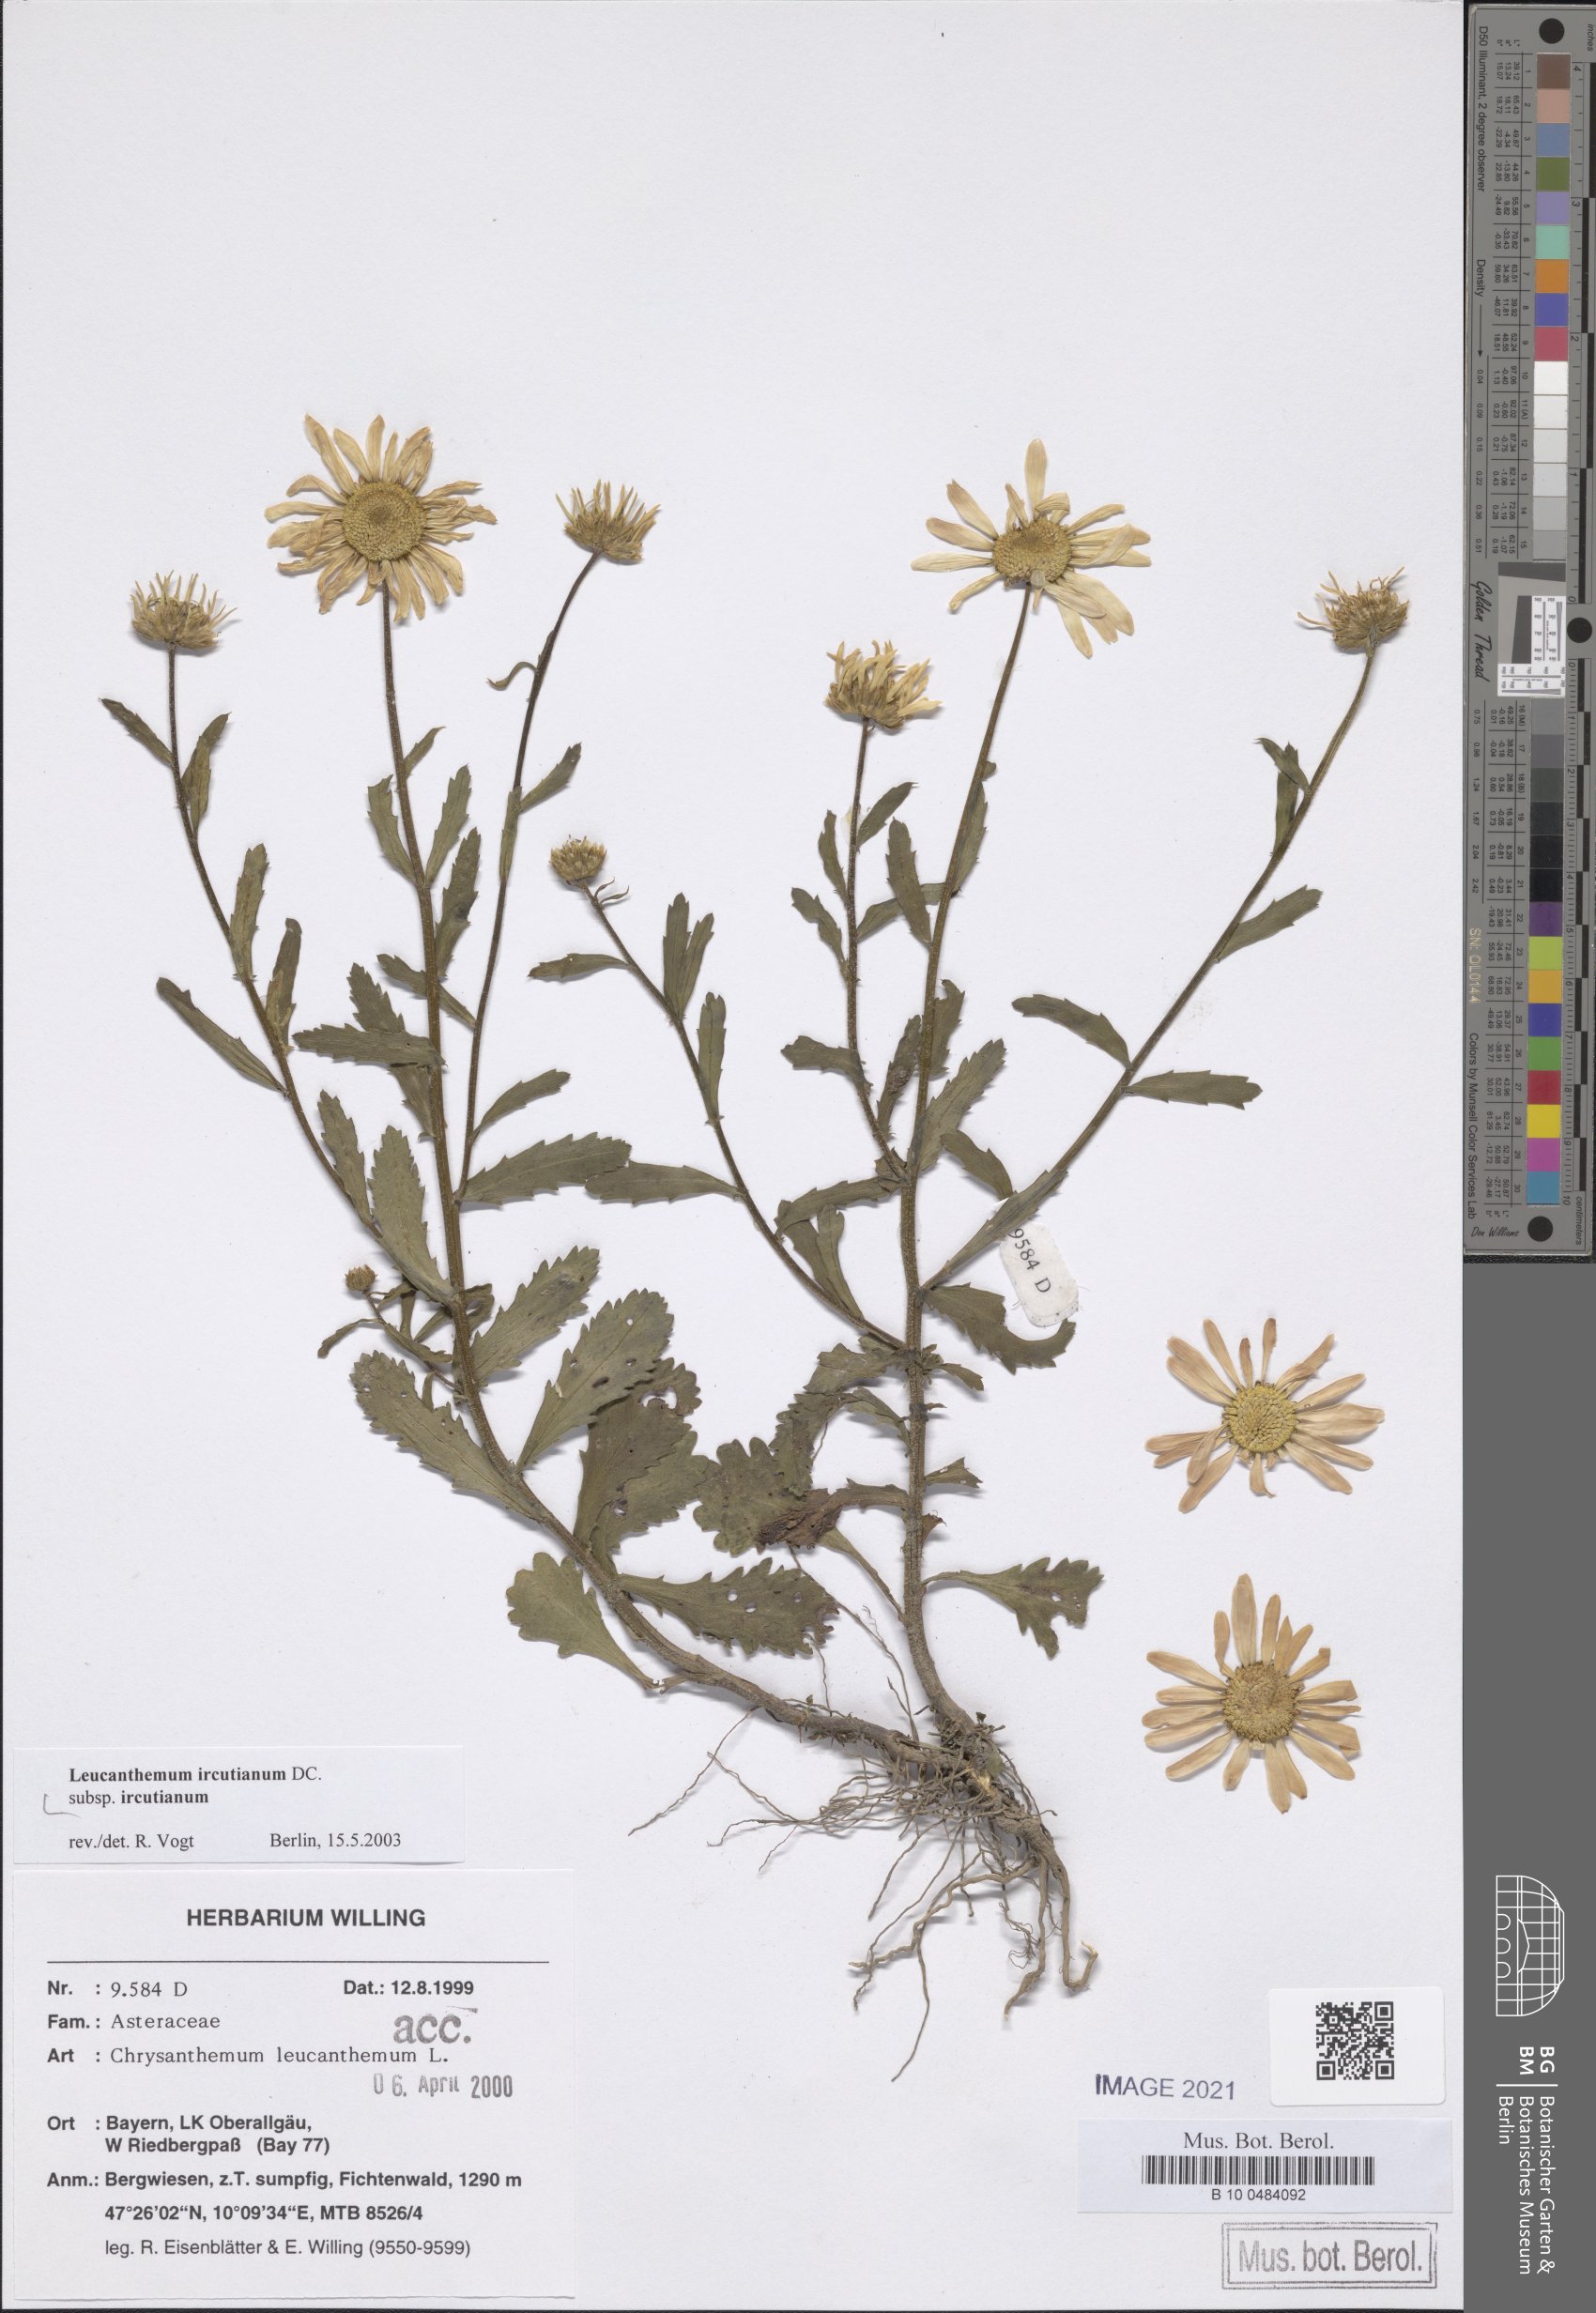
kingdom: Plantae
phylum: Tracheophyta
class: Magnoliopsida
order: Asterales
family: Asteraceae
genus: Leucanthemum
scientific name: Leucanthemum ircutianum
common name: Daisy
